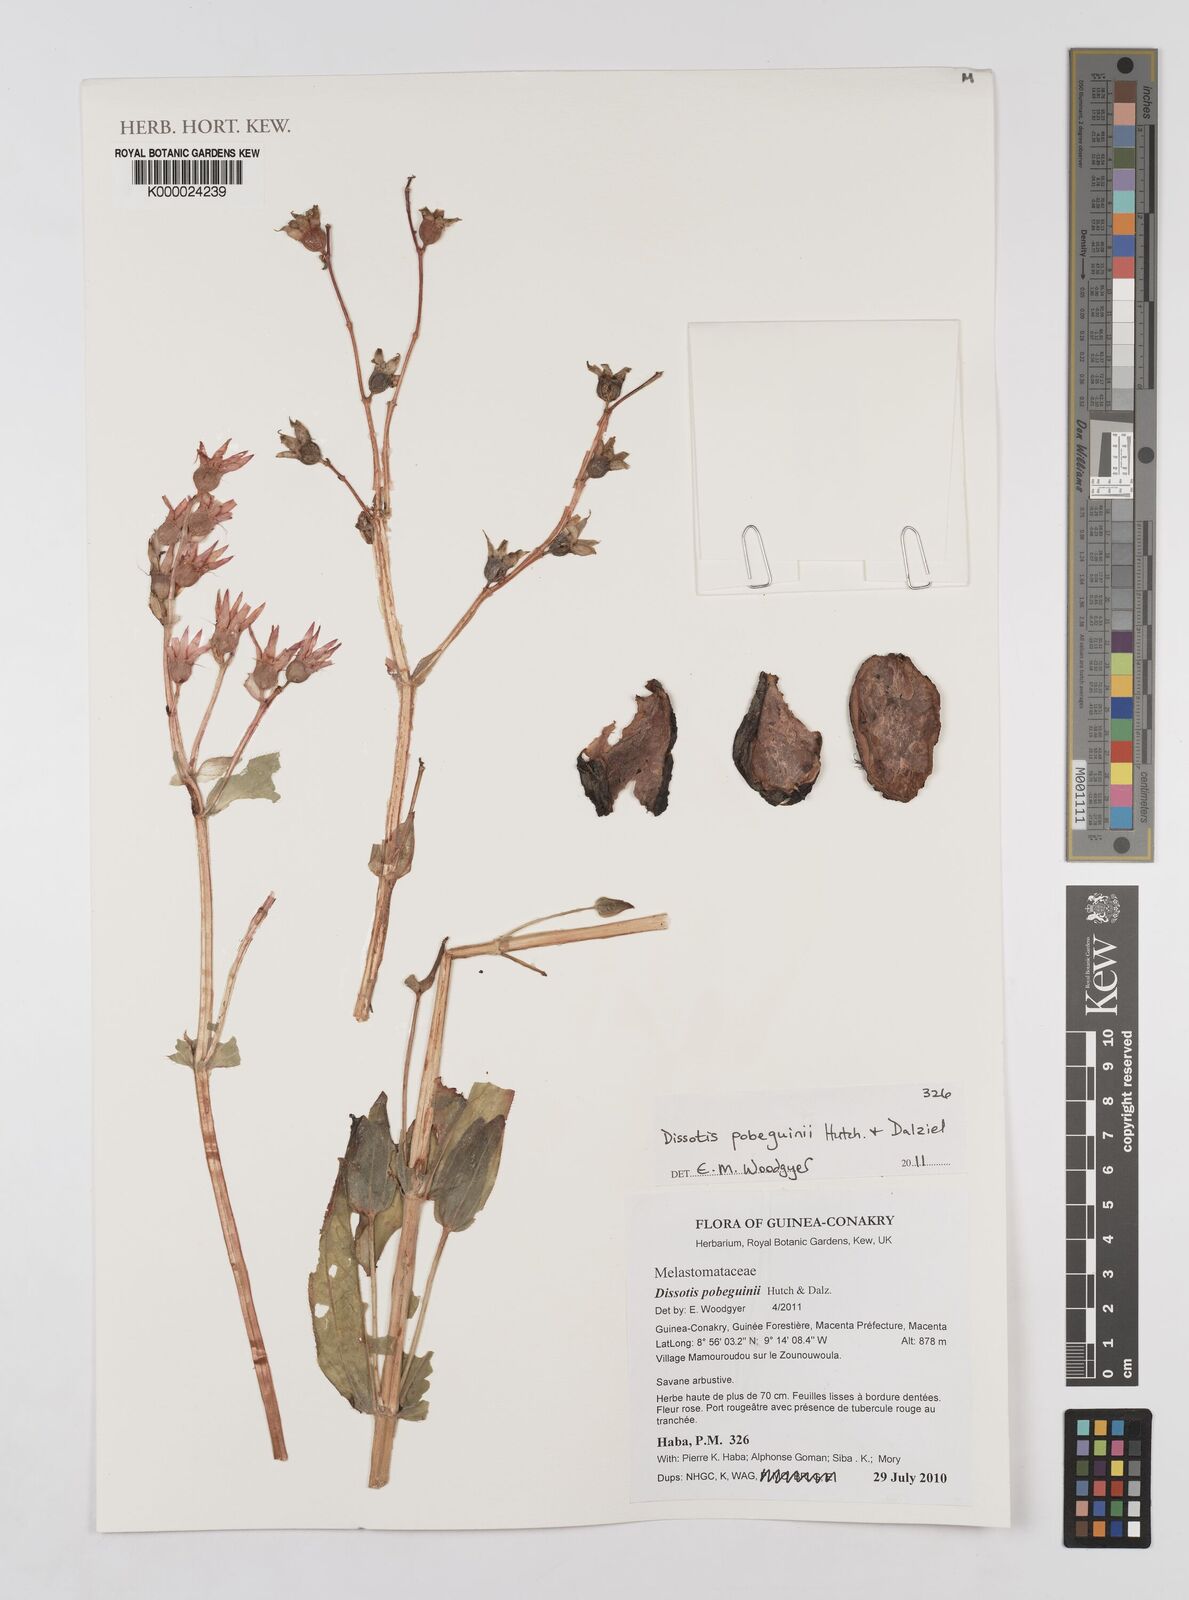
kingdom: Plantae
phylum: Tracheophyta
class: Magnoliopsida
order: Myrtales
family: Melastomataceae
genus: Anaheterotis
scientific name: Anaheterotis pobeguinii
